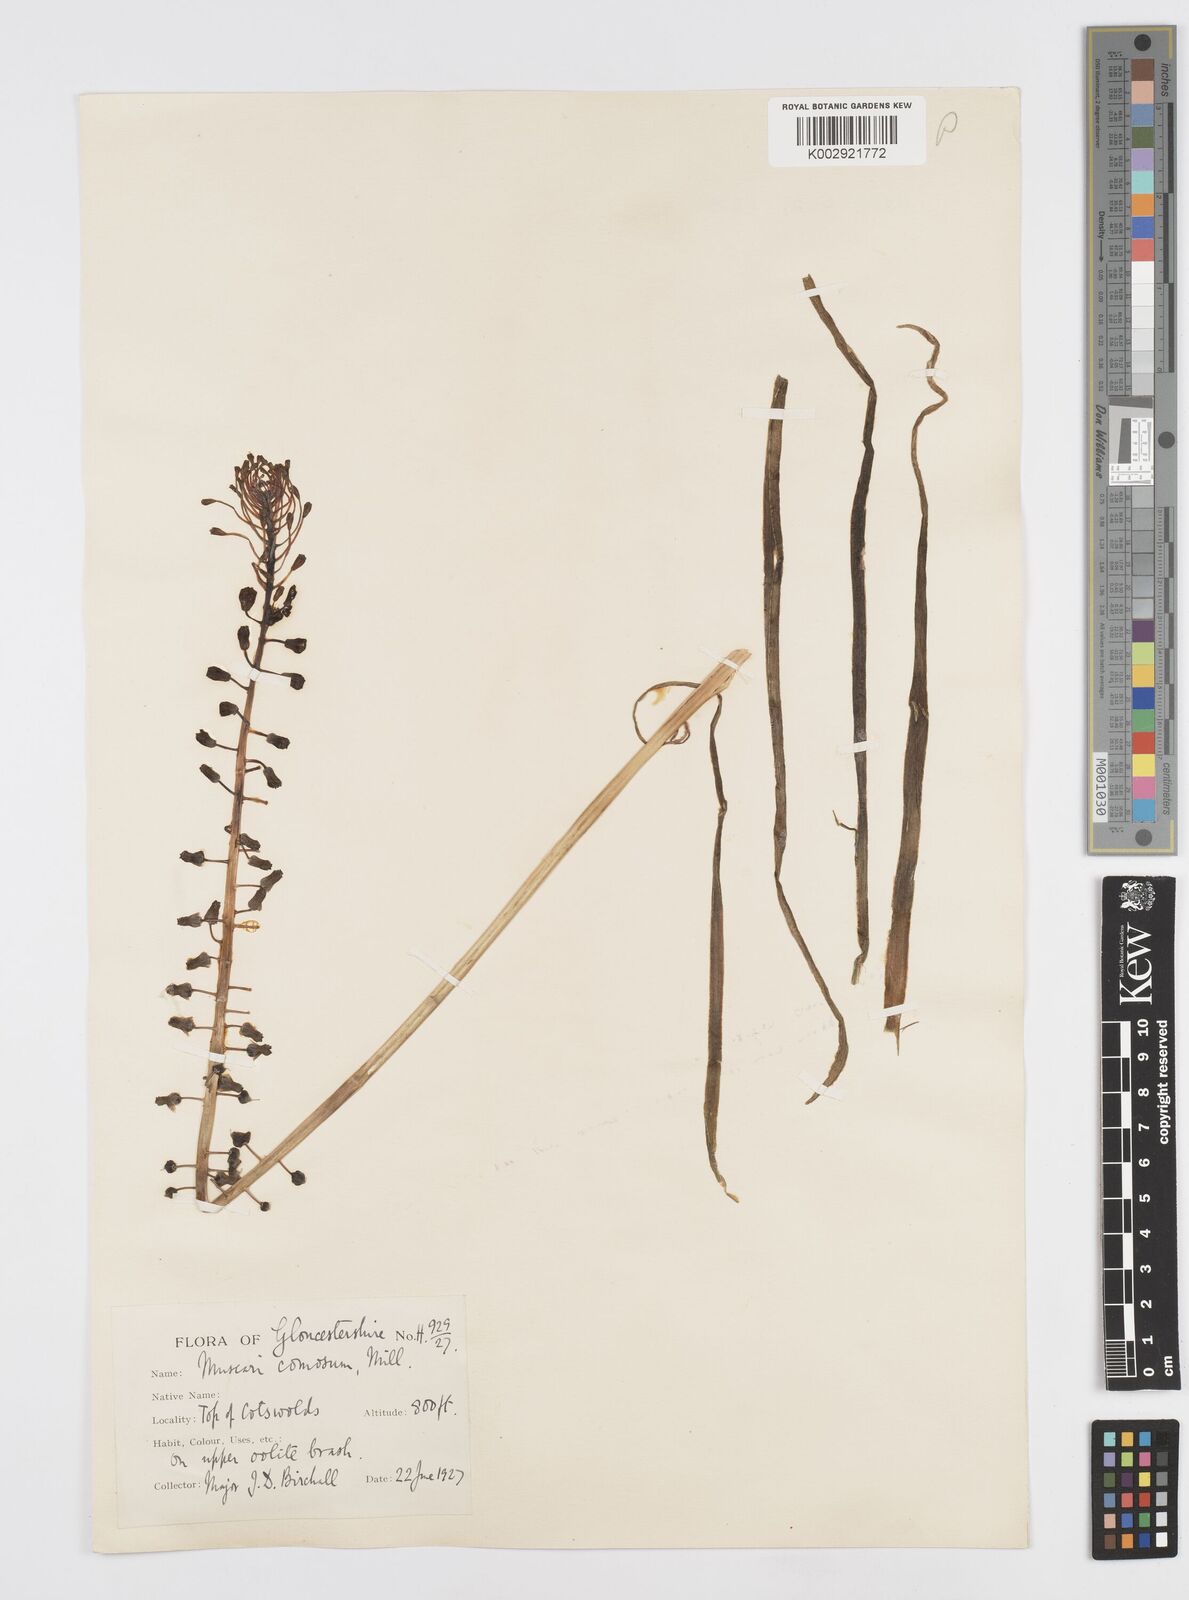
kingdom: Plantae
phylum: Tracheophyta
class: Liliopsida
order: Asparagales
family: Asparagaceae
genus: Muscari
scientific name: Muscari comosum
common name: Tassel hyacinth
